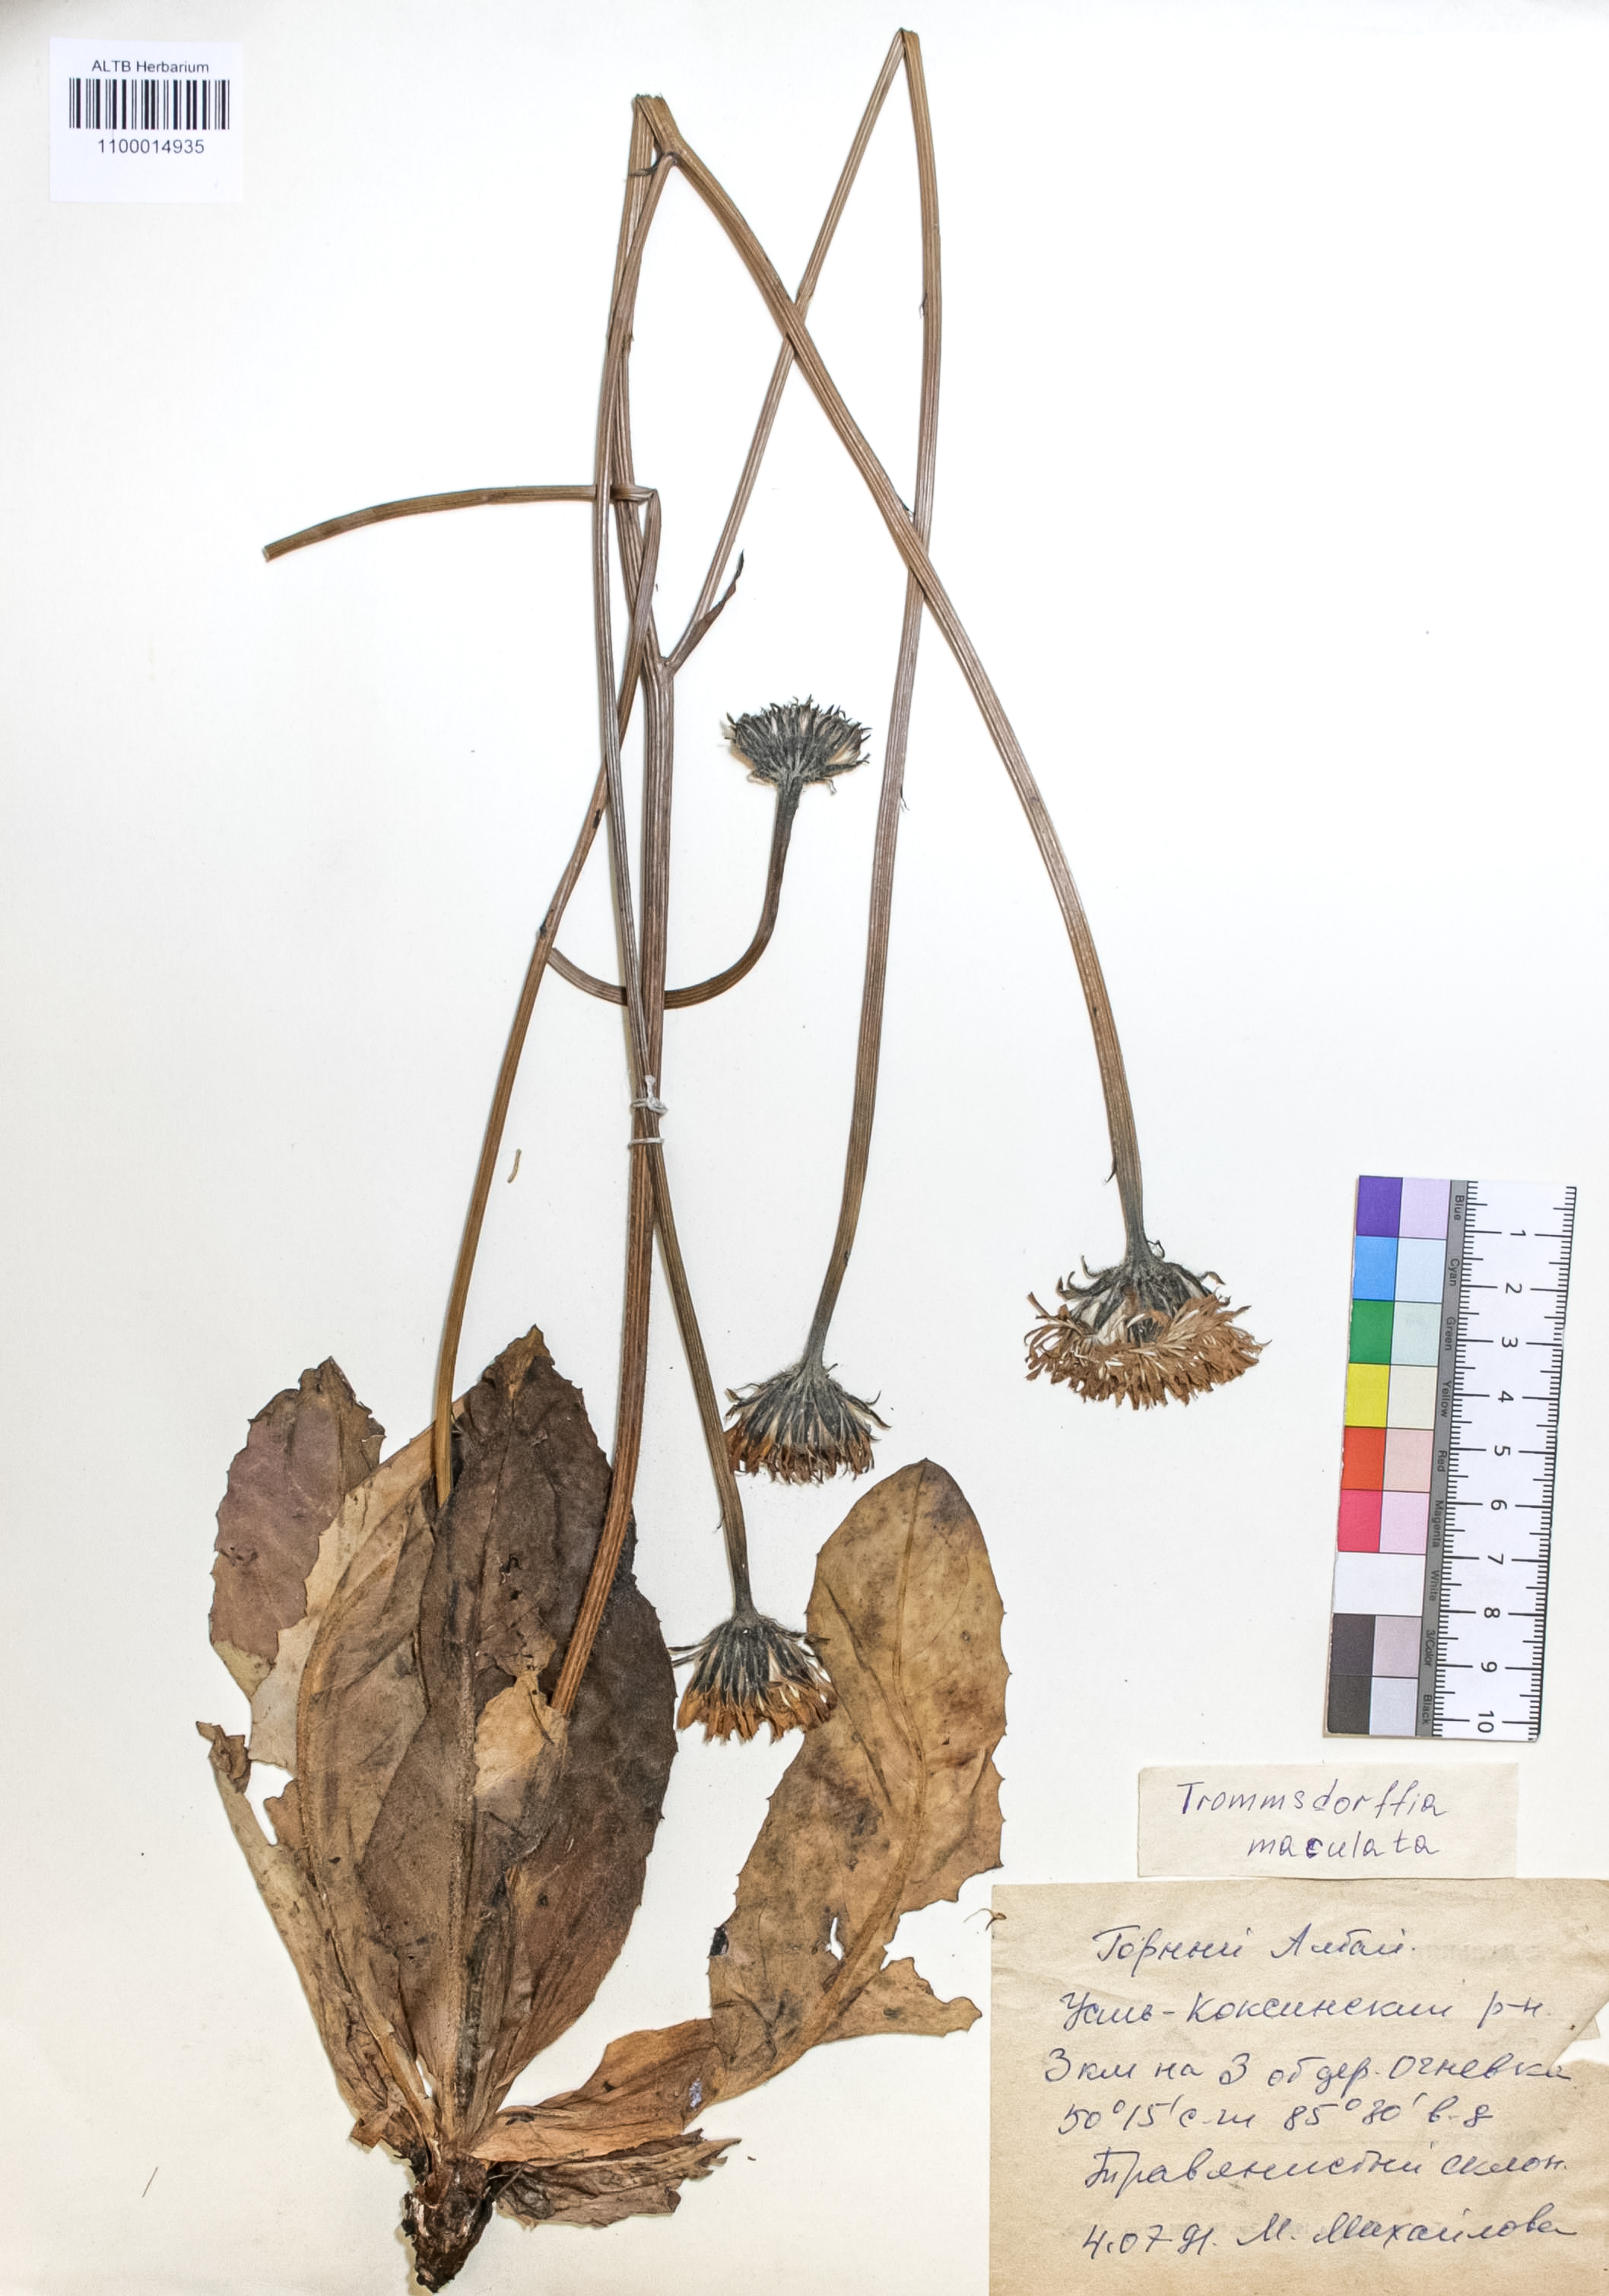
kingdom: Plantae
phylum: Tracheophyta
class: Magnoliopsida
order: Asterales
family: Asteraceae
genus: Trommsdorffia
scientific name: Trommsdorffia maculata
